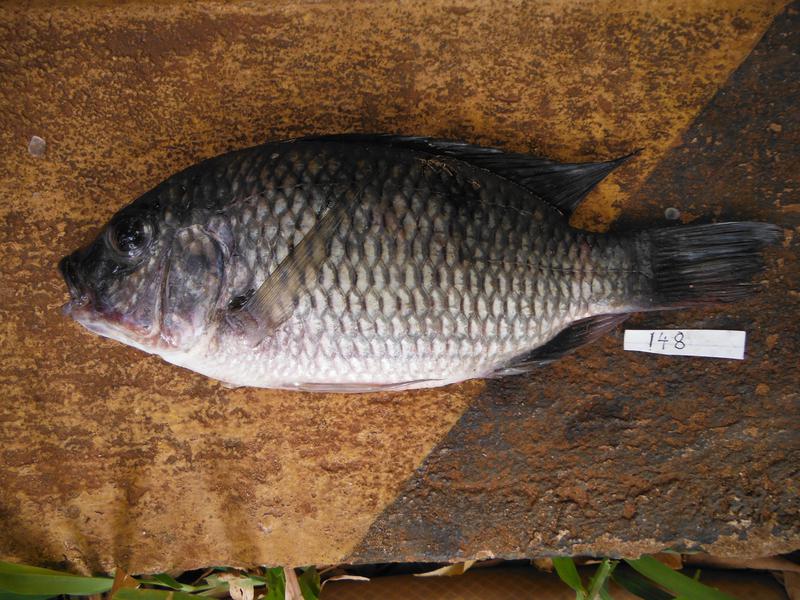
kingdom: Animalia
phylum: Chordata
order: Perciformes
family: Cichlidae
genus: Coptodon
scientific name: Coptodon rendalli
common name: Redbreast tilapia
